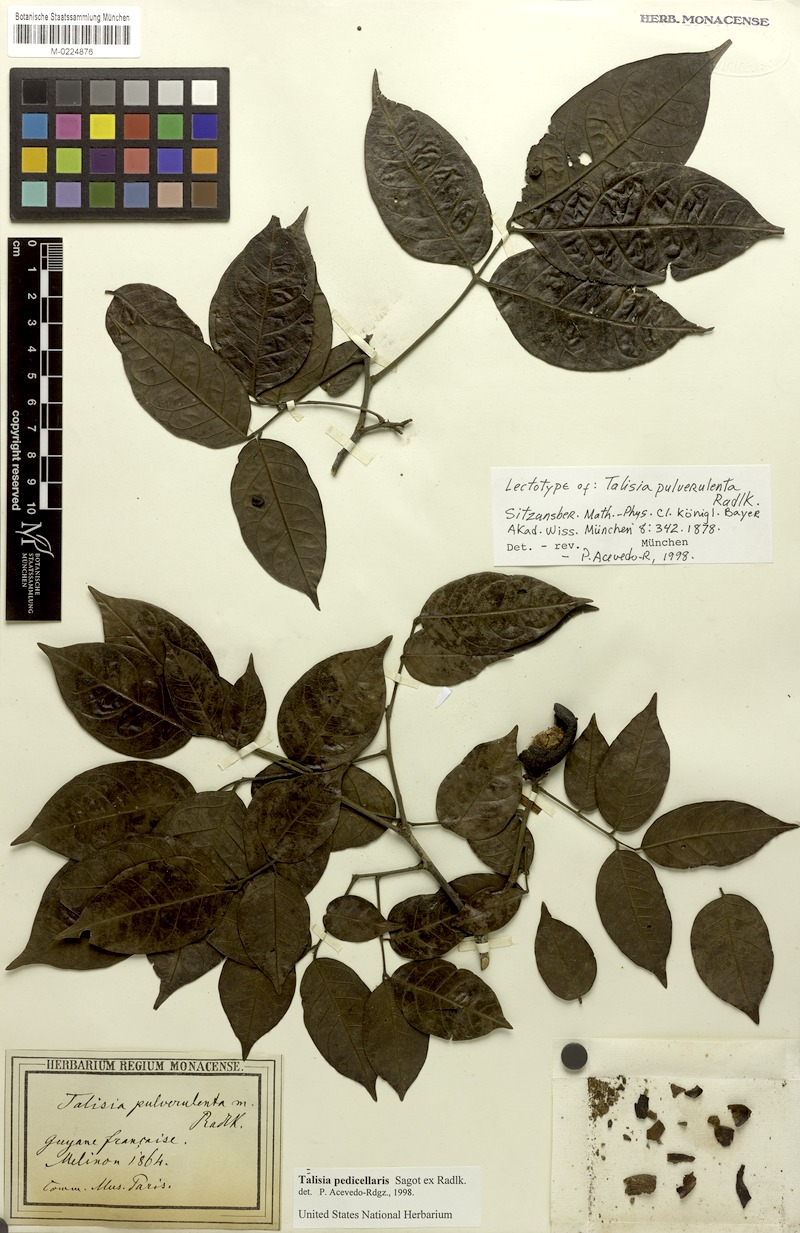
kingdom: Plantae
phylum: Tracheophyta
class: Magnoliopsida
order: Sapindales
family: Sapindaceae
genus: Melicoccus
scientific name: Melicoccus pedicellaris
